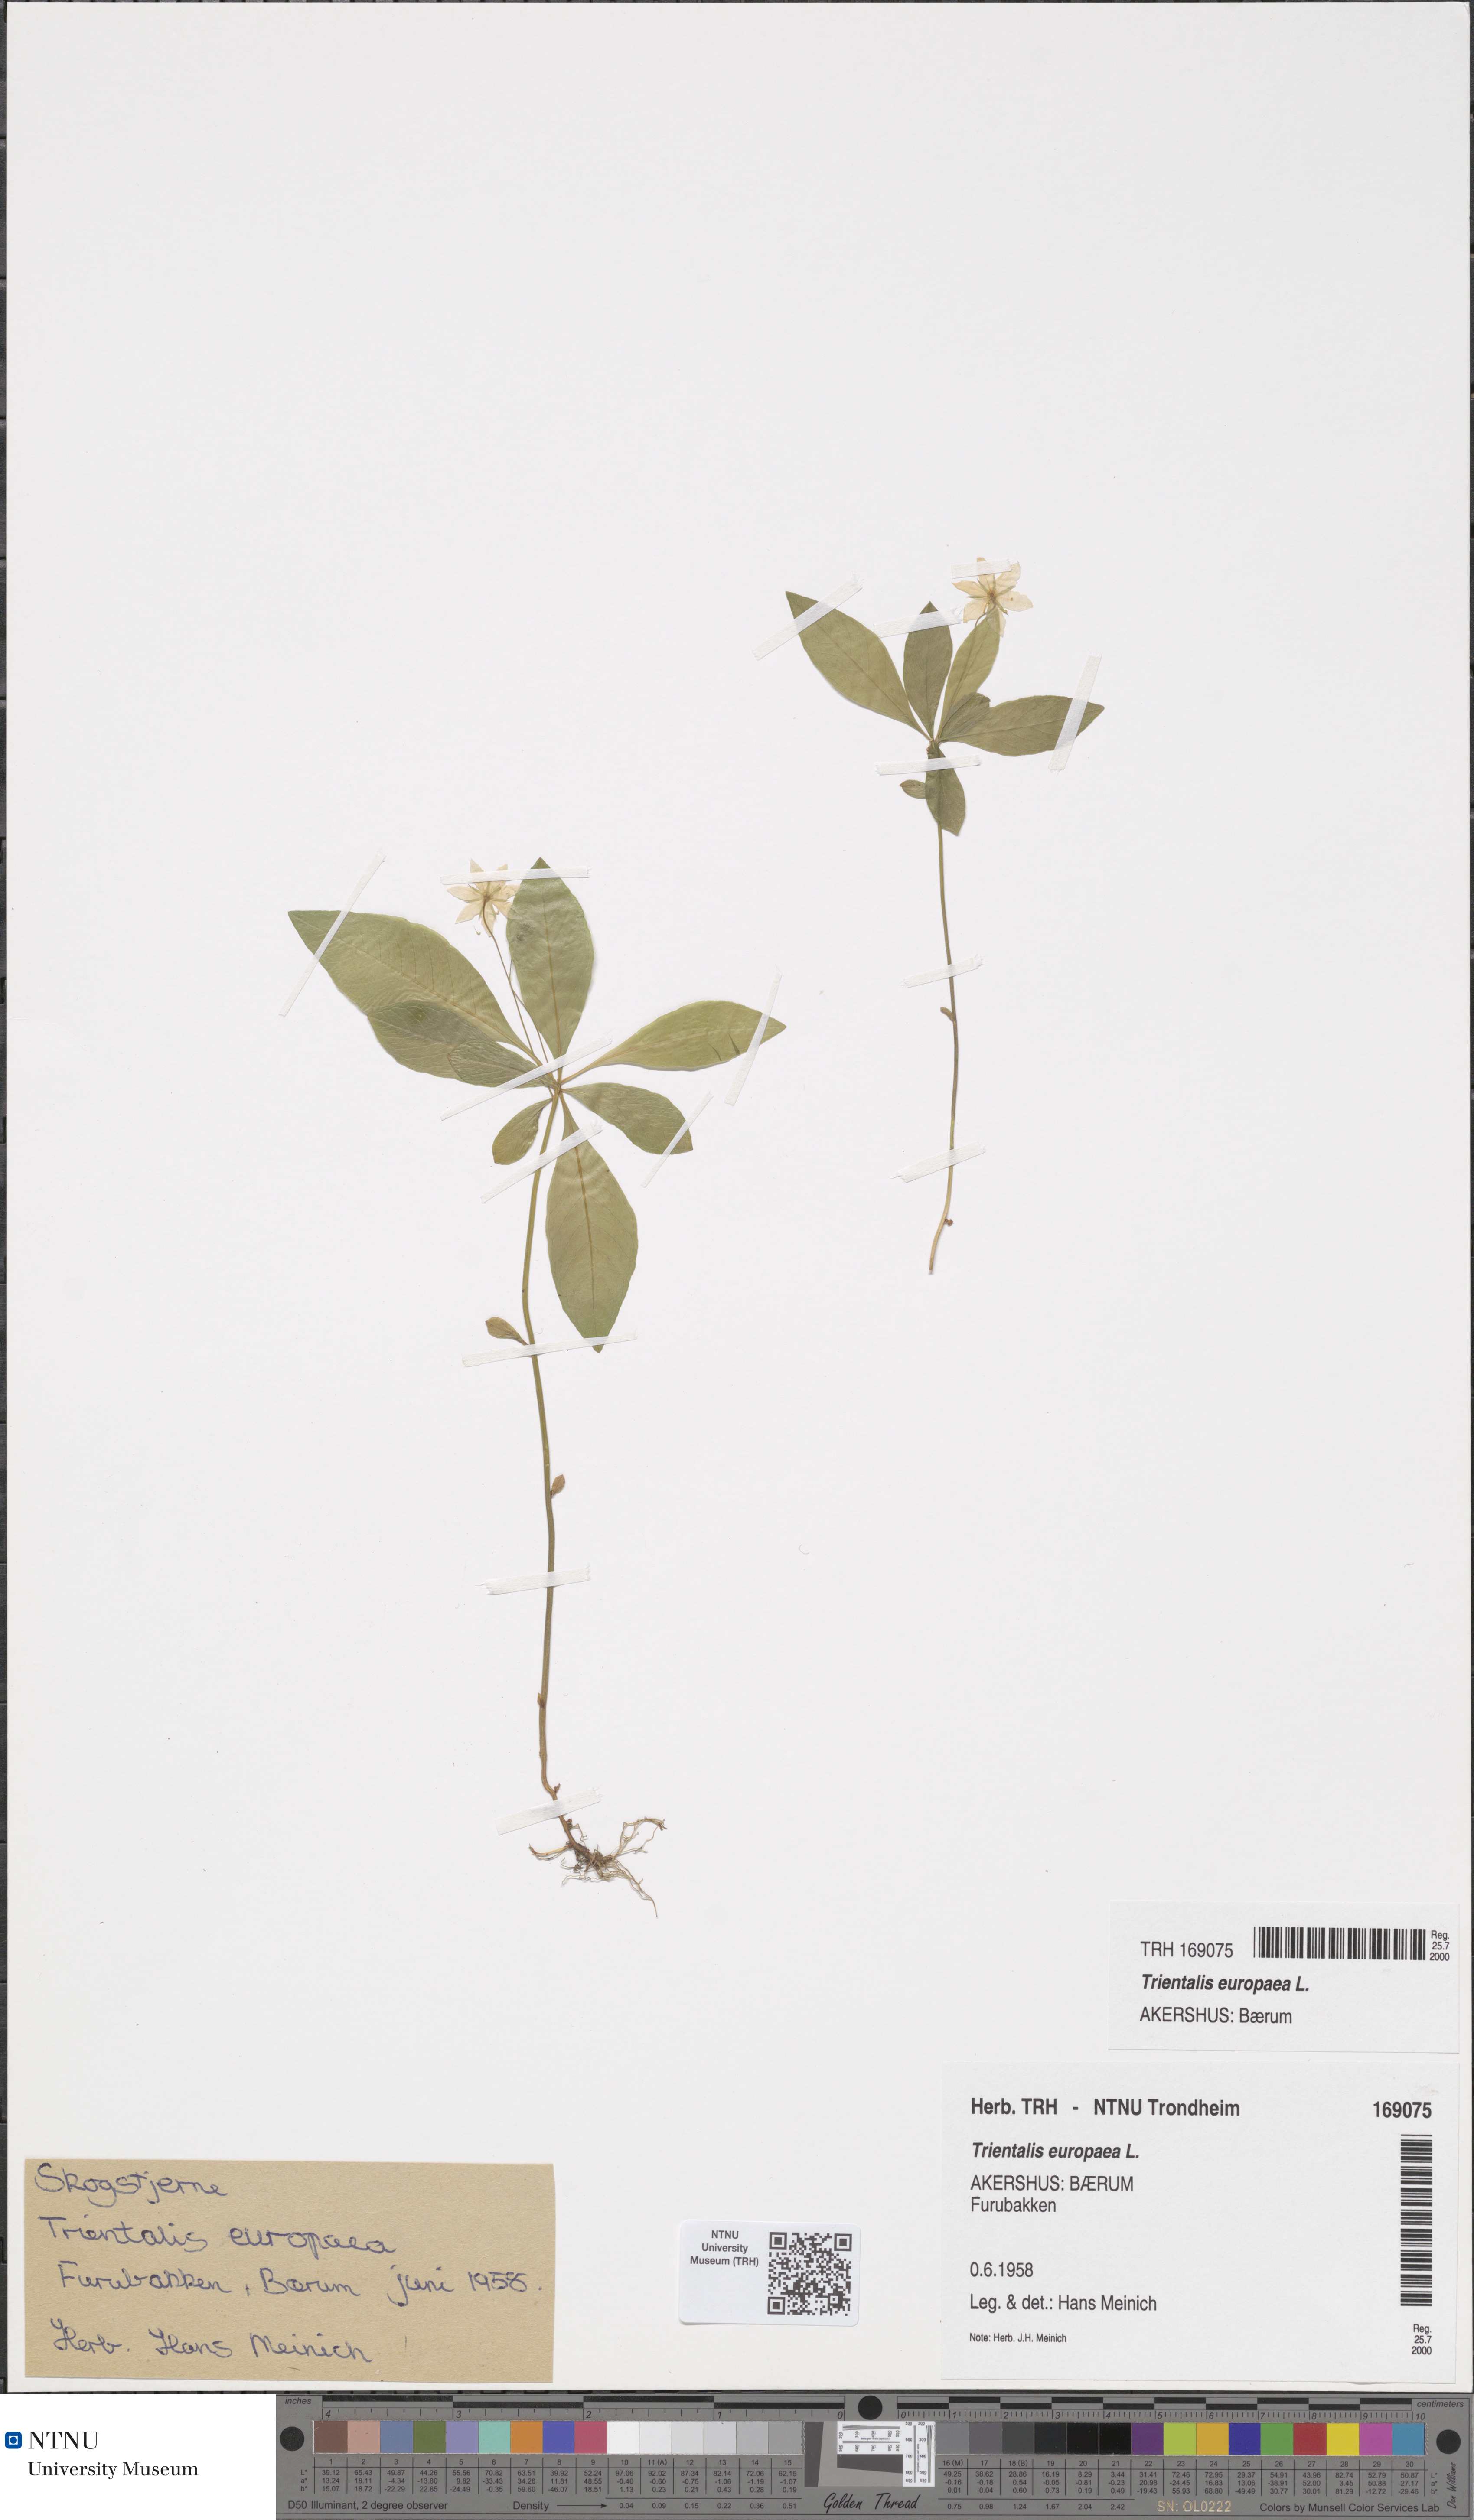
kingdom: Plantae
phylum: Tracheophyta
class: Magnoliopsida
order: Ericales
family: Primulaceae
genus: Lysimachia
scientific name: Lysimachia europaea
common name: Arctic starflower
